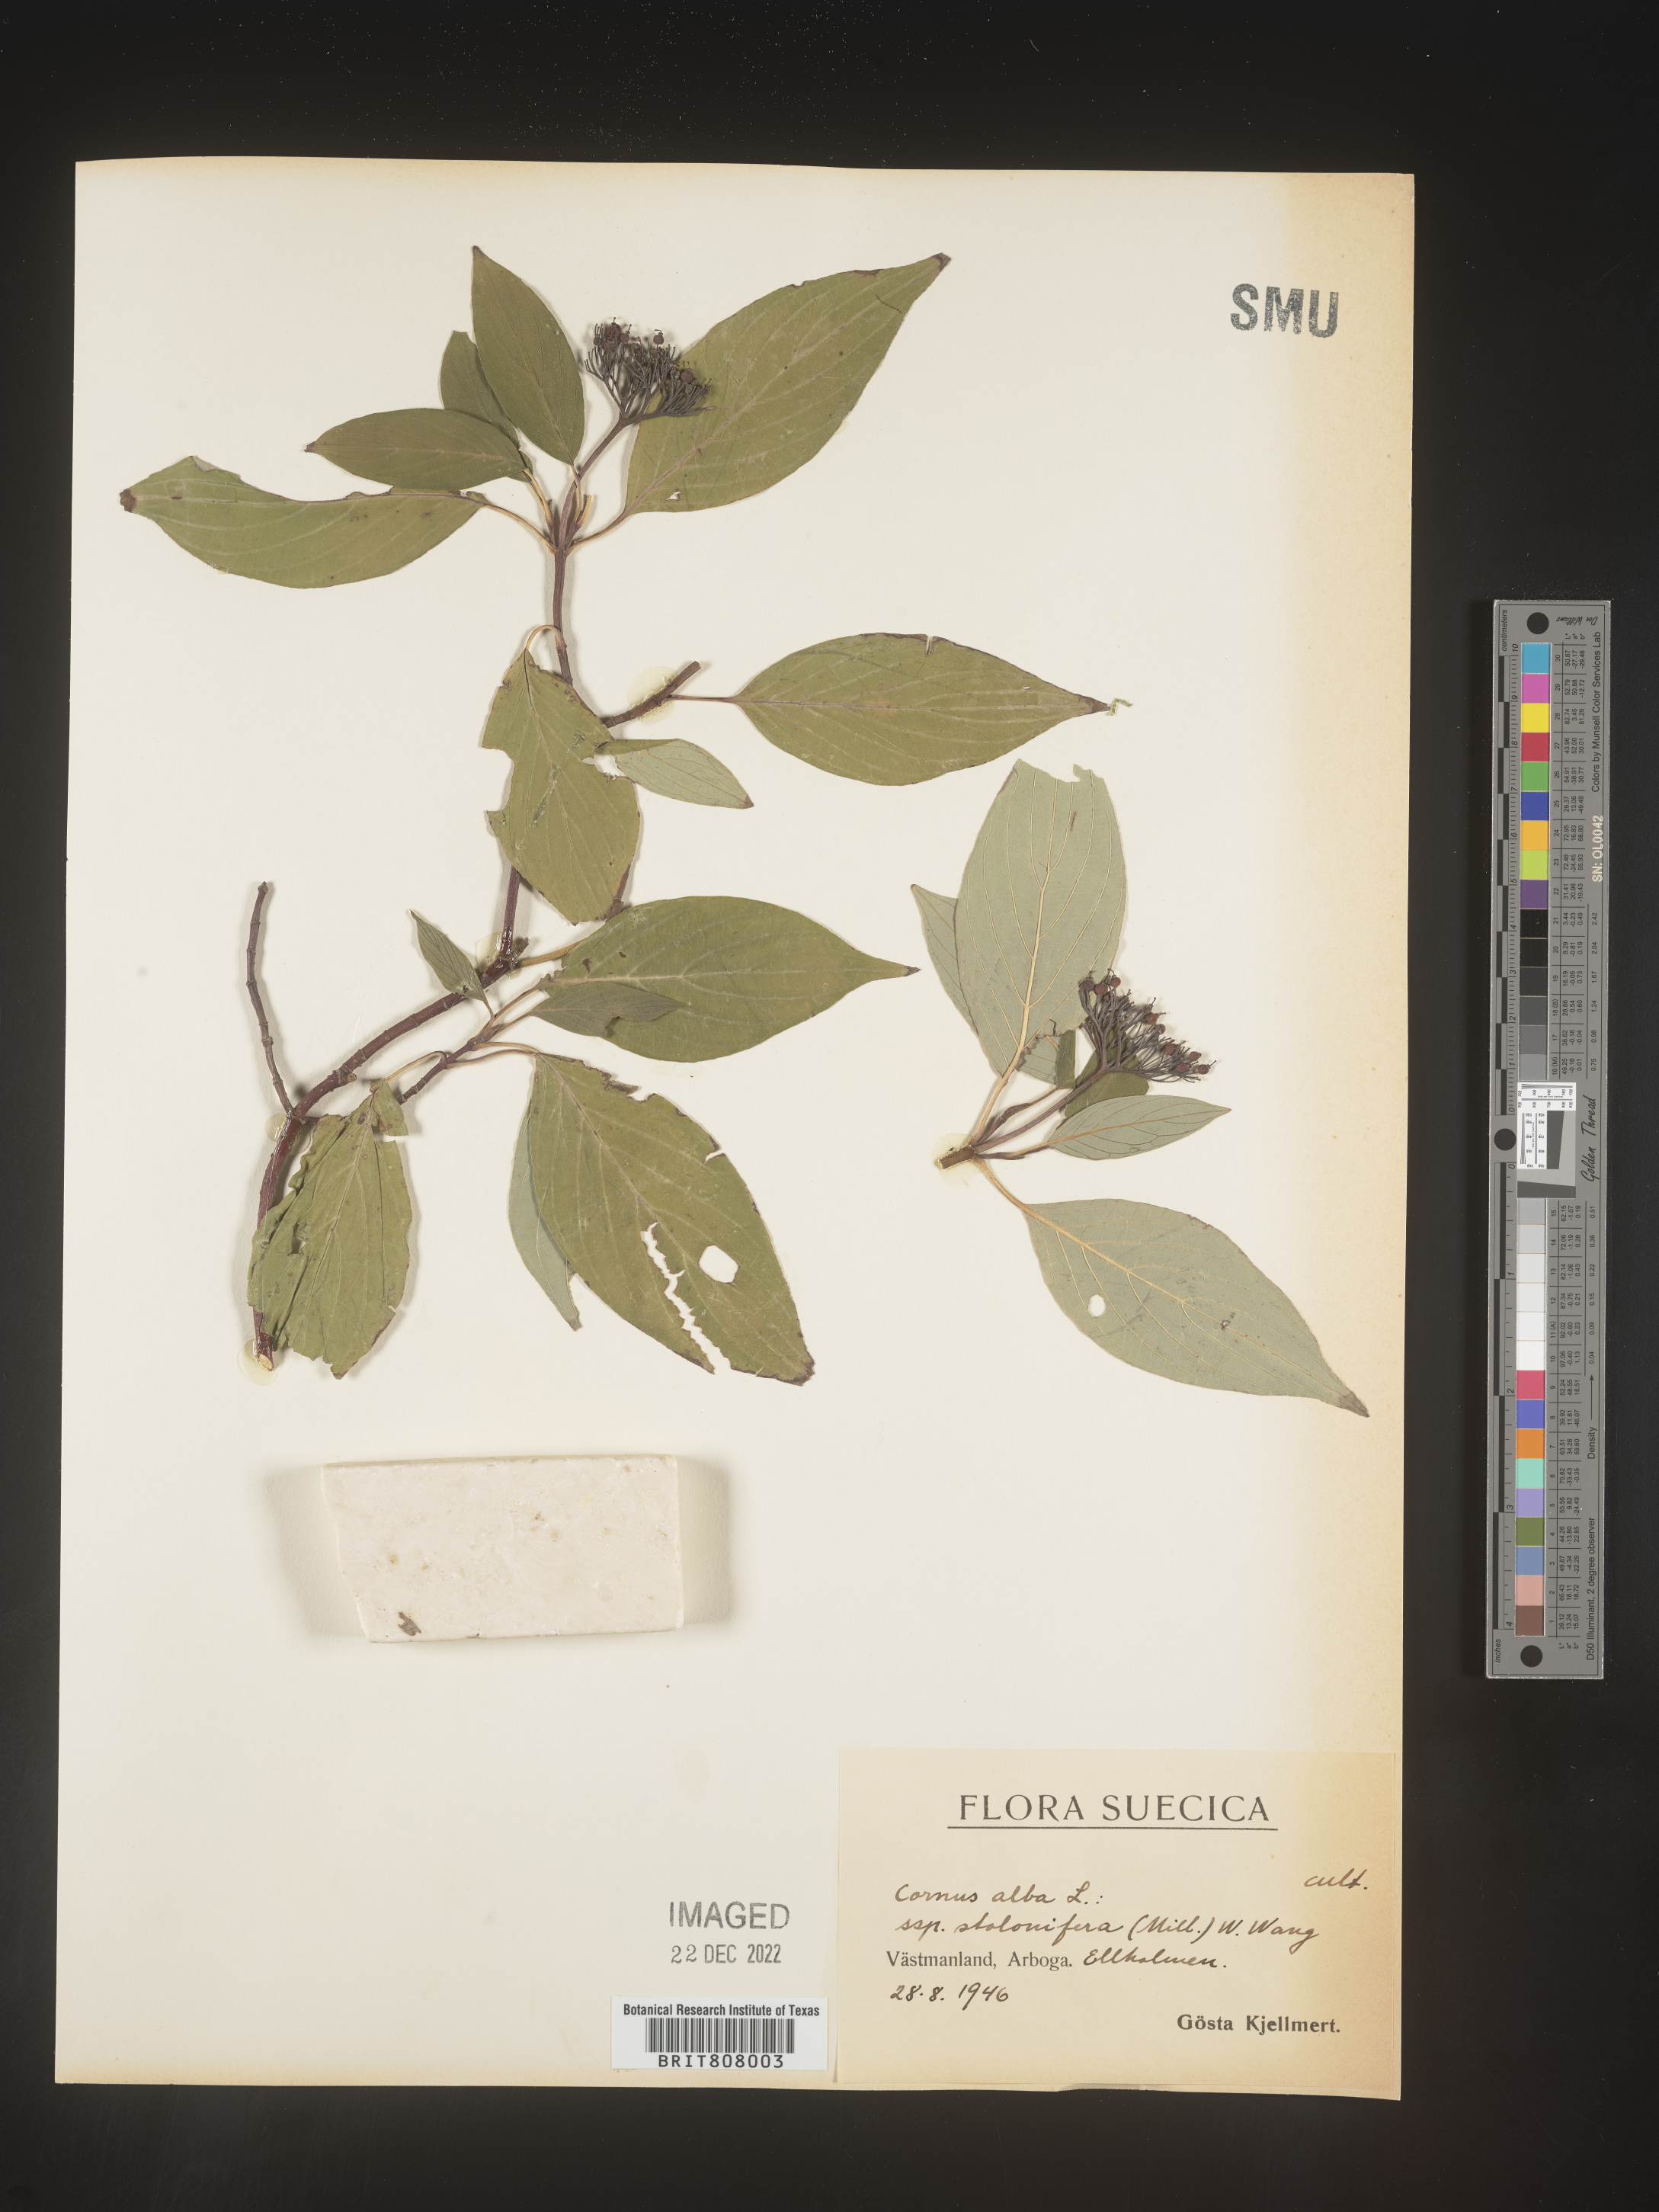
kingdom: Plantae
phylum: Tracheophyta
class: Magnoliopsida
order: Cornales
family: Cornaceae
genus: Cornus
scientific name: Cornus
